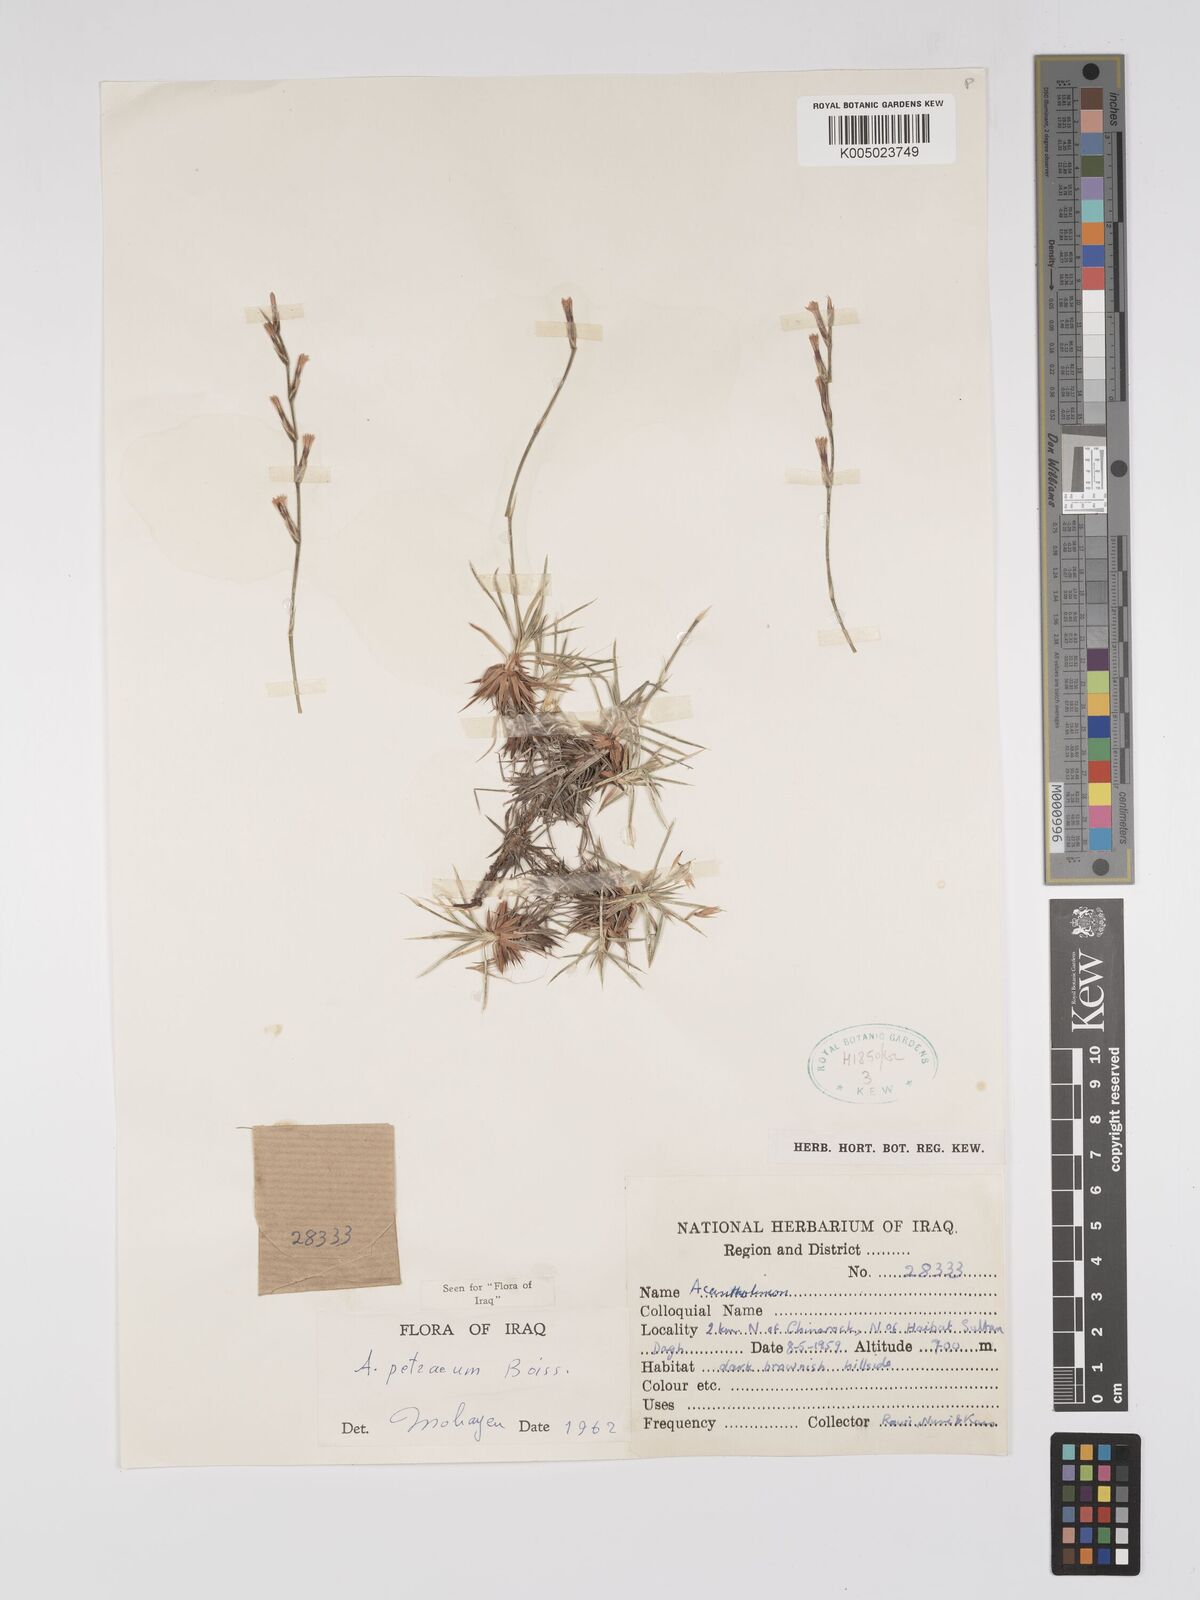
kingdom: Plantae
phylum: Tracheophyta
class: Magnoliopsida
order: Caryophyllales
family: Plumbaginaceae
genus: Acantholimon
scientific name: Acantholimon petraeum
